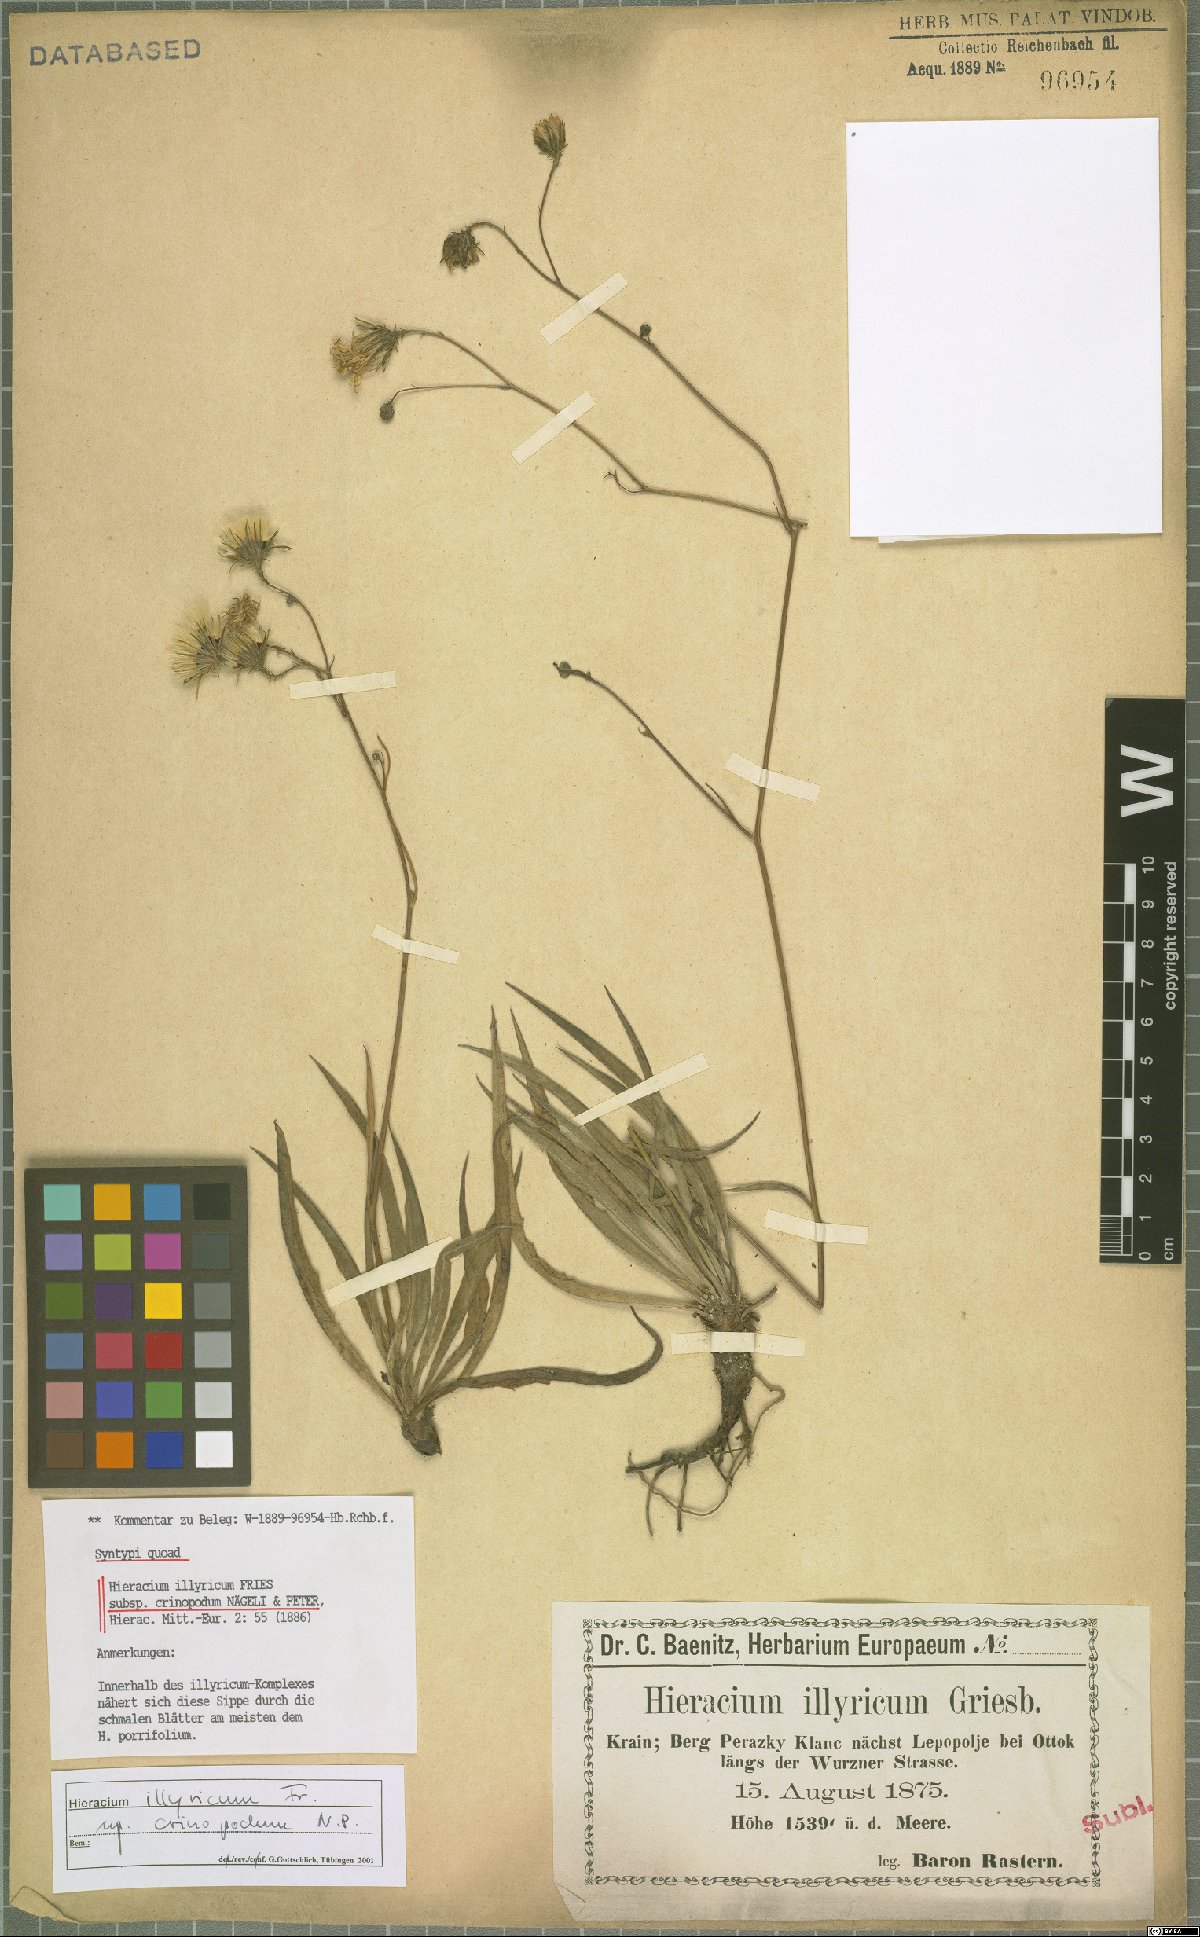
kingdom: Plantae
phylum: Tracheophyta
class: Magnoliopsida
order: Asterales
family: Asteraceae
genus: Hieracium
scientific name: Hieracium calcareum
